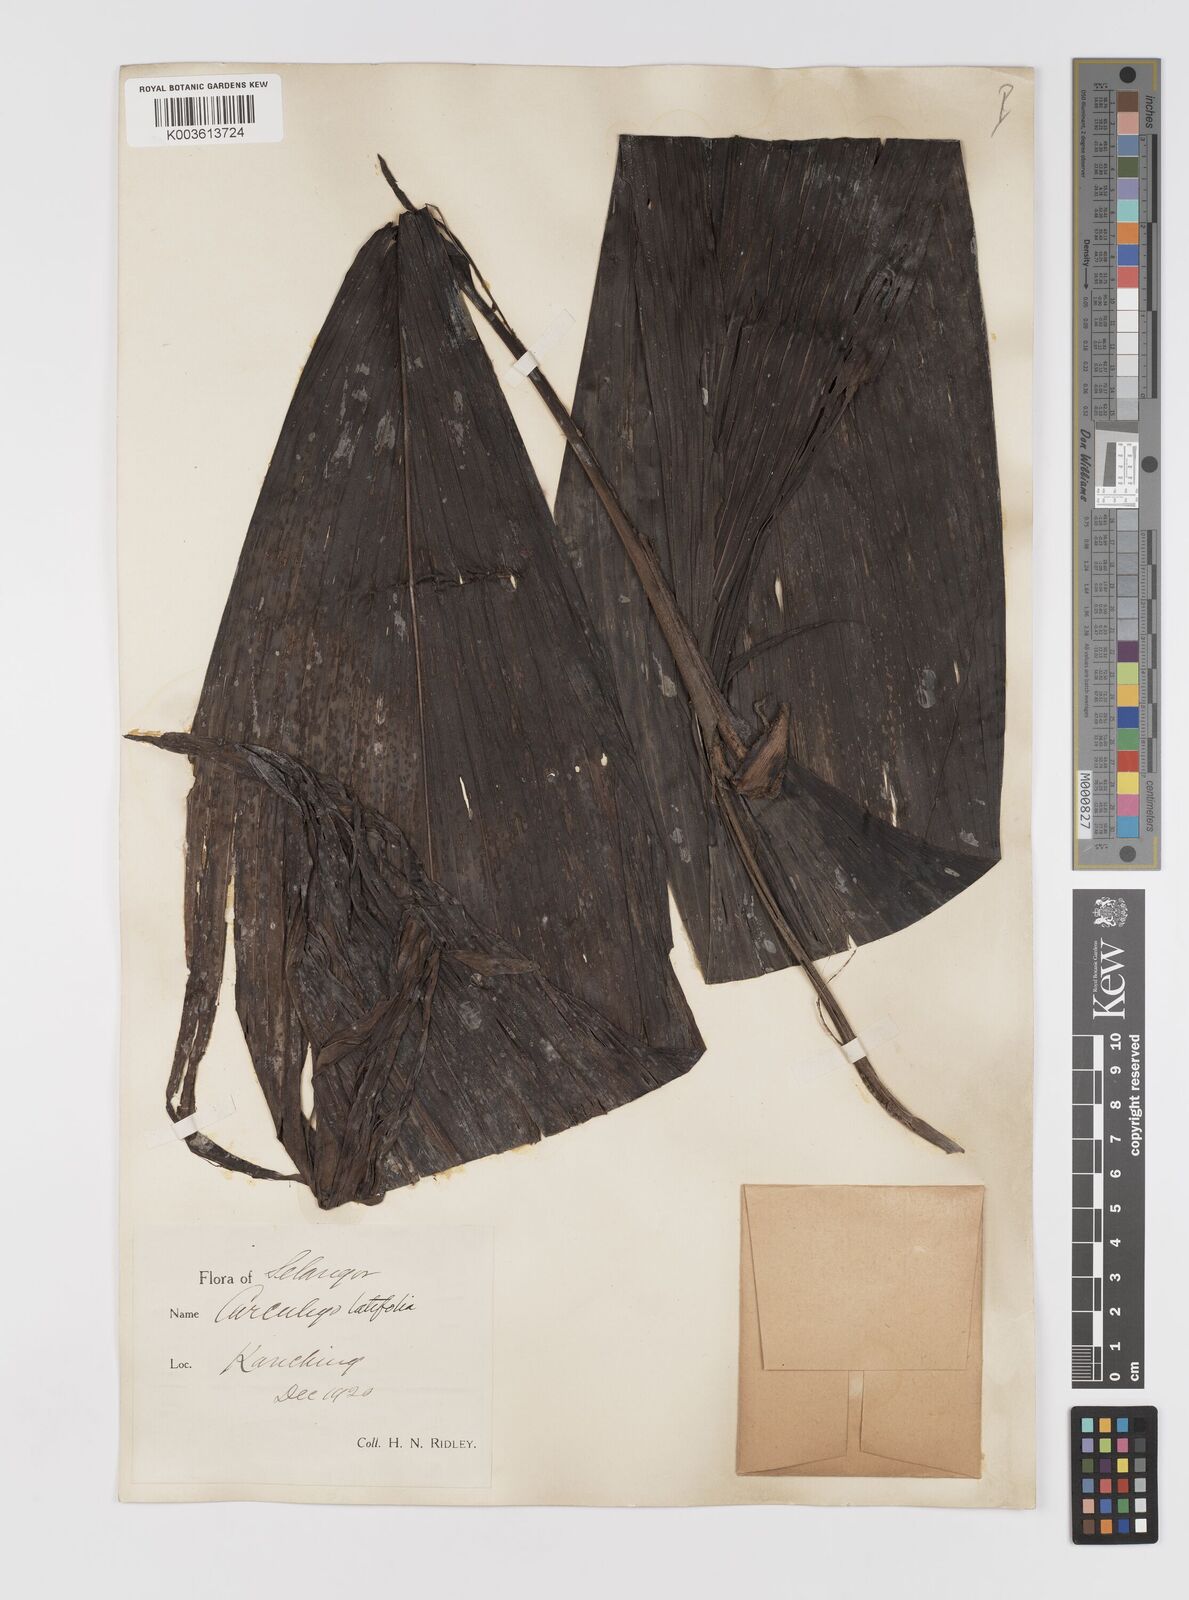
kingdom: Plantae
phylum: Tracheophyta
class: Liliopsida
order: Asparagales
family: Hypoxidaceae
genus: Curculigo
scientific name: Curculigo latifolia
